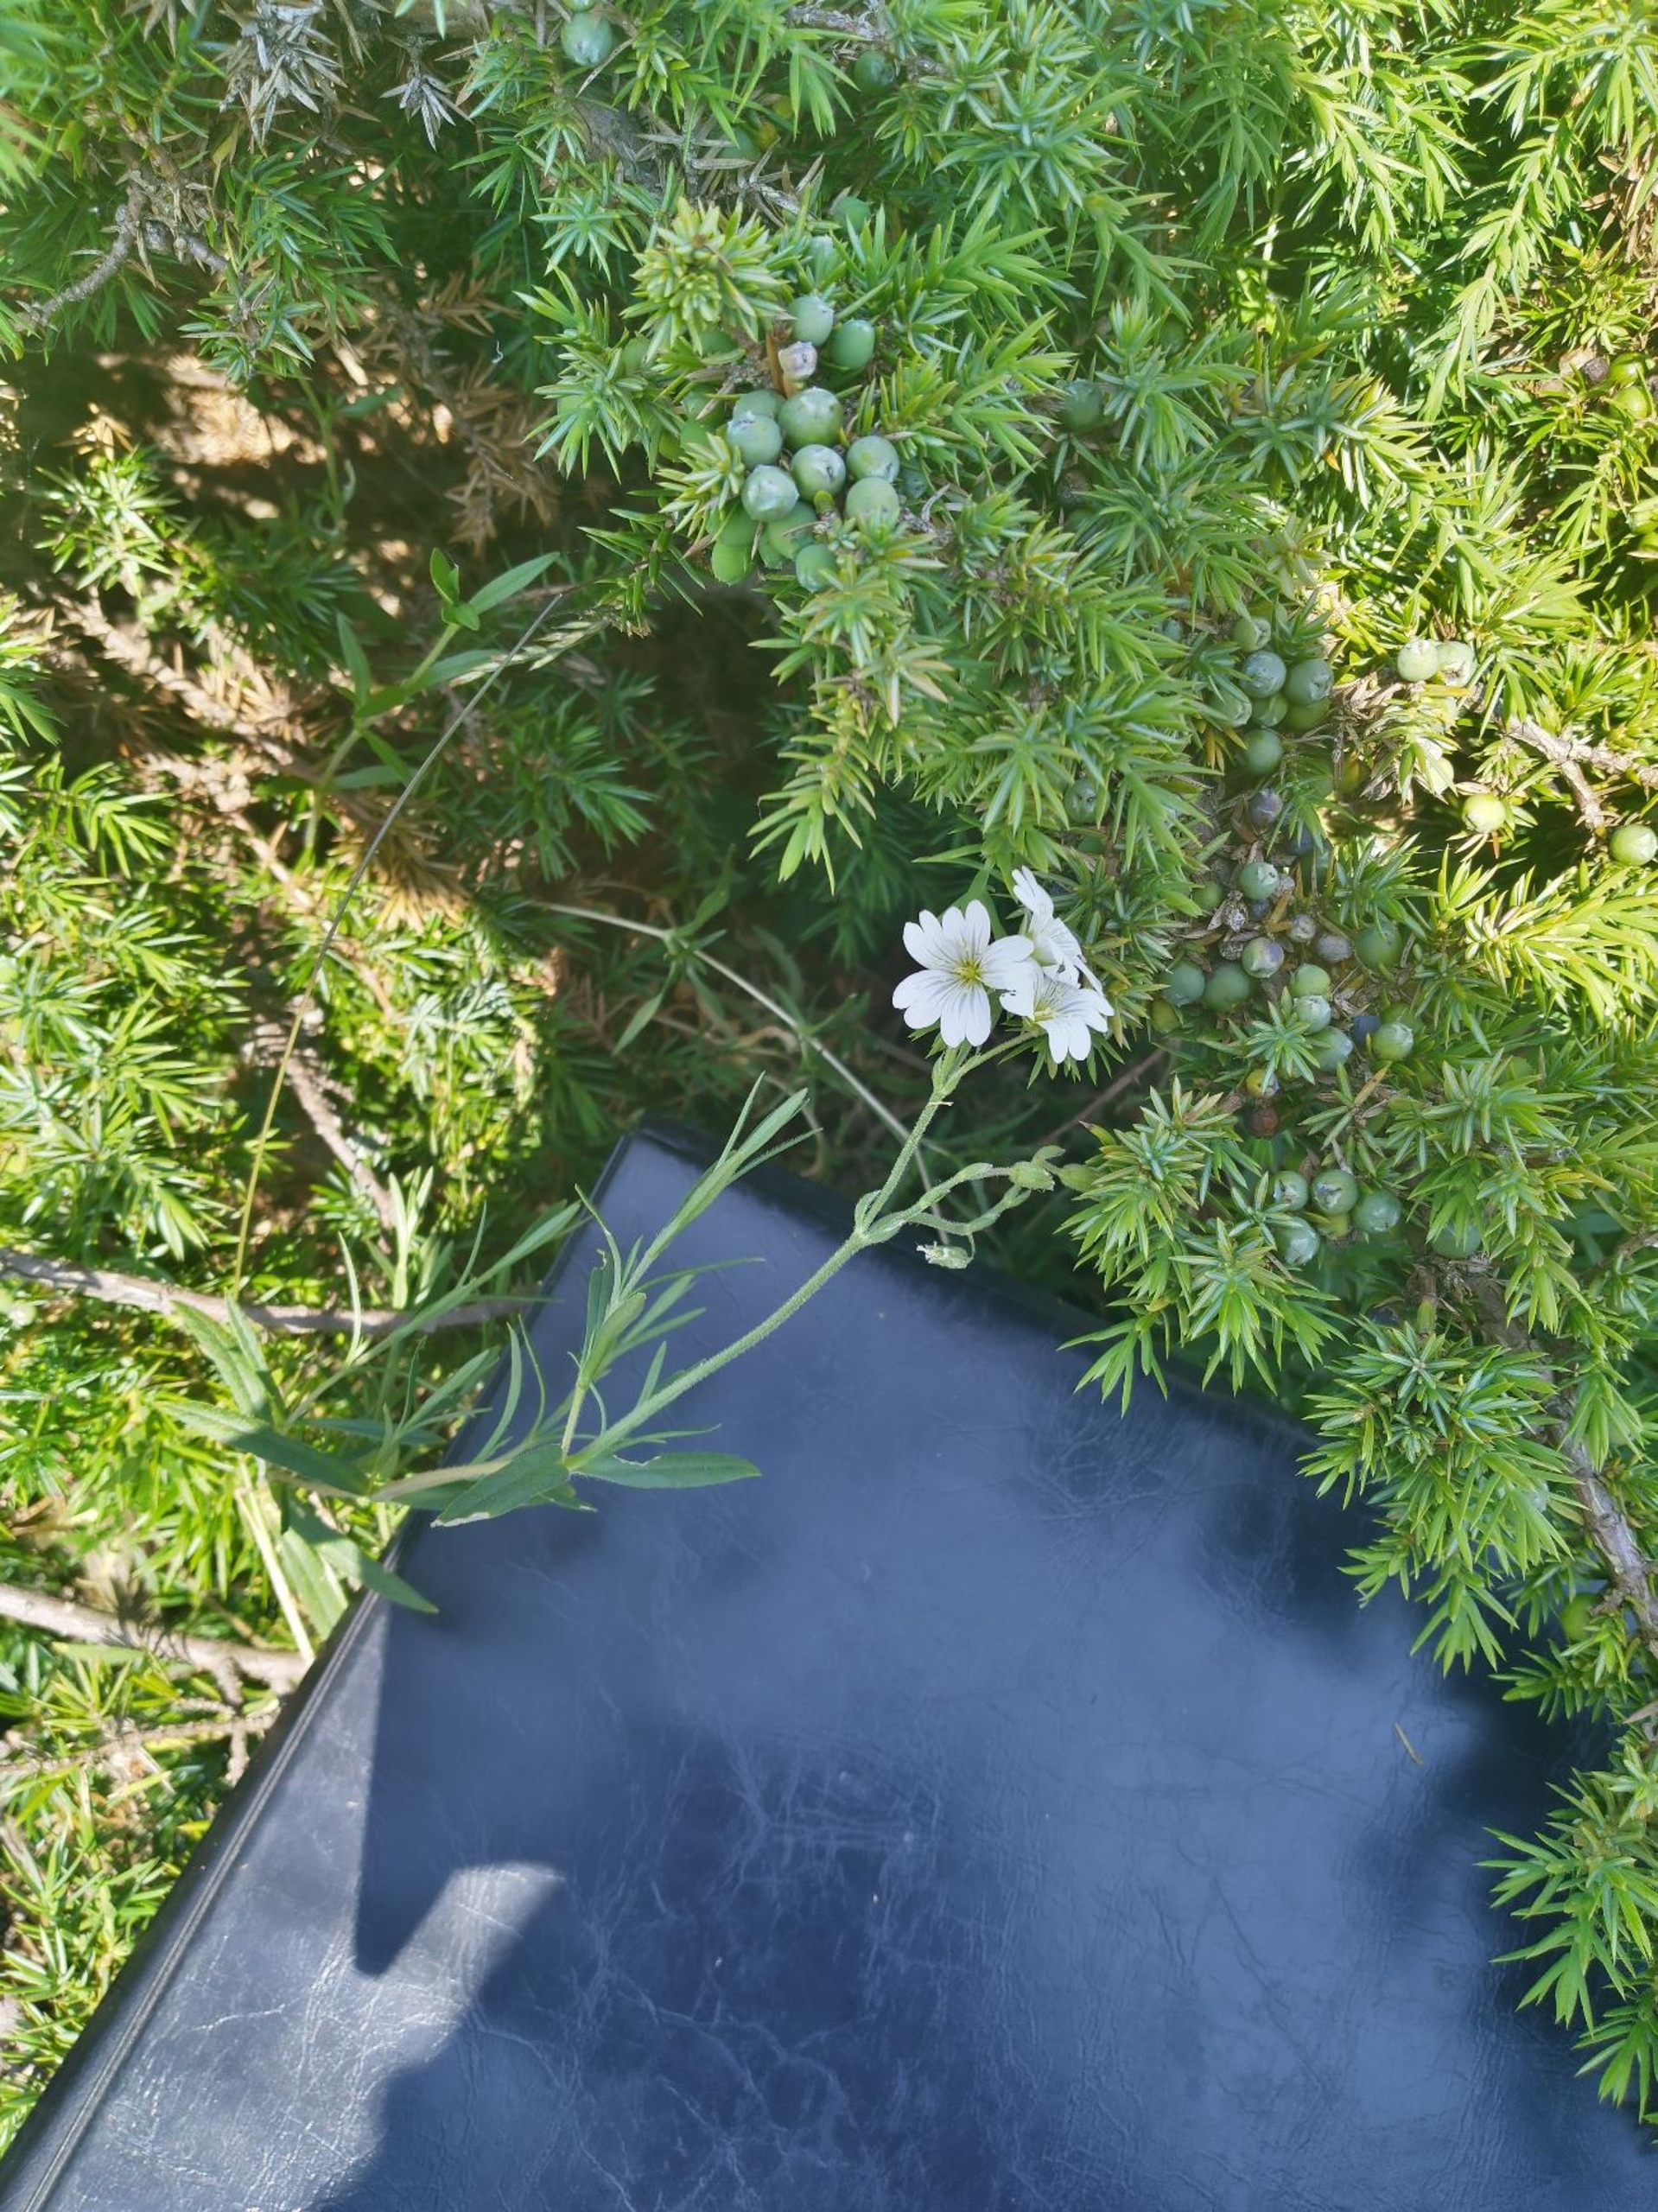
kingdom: Plantae
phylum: Tracheophyta
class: Magnoliopsida
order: Caryophyllales
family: Caryophyllaceae
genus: Cerastium
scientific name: Cerastium arvense
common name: Storblomstret hønsetarm
